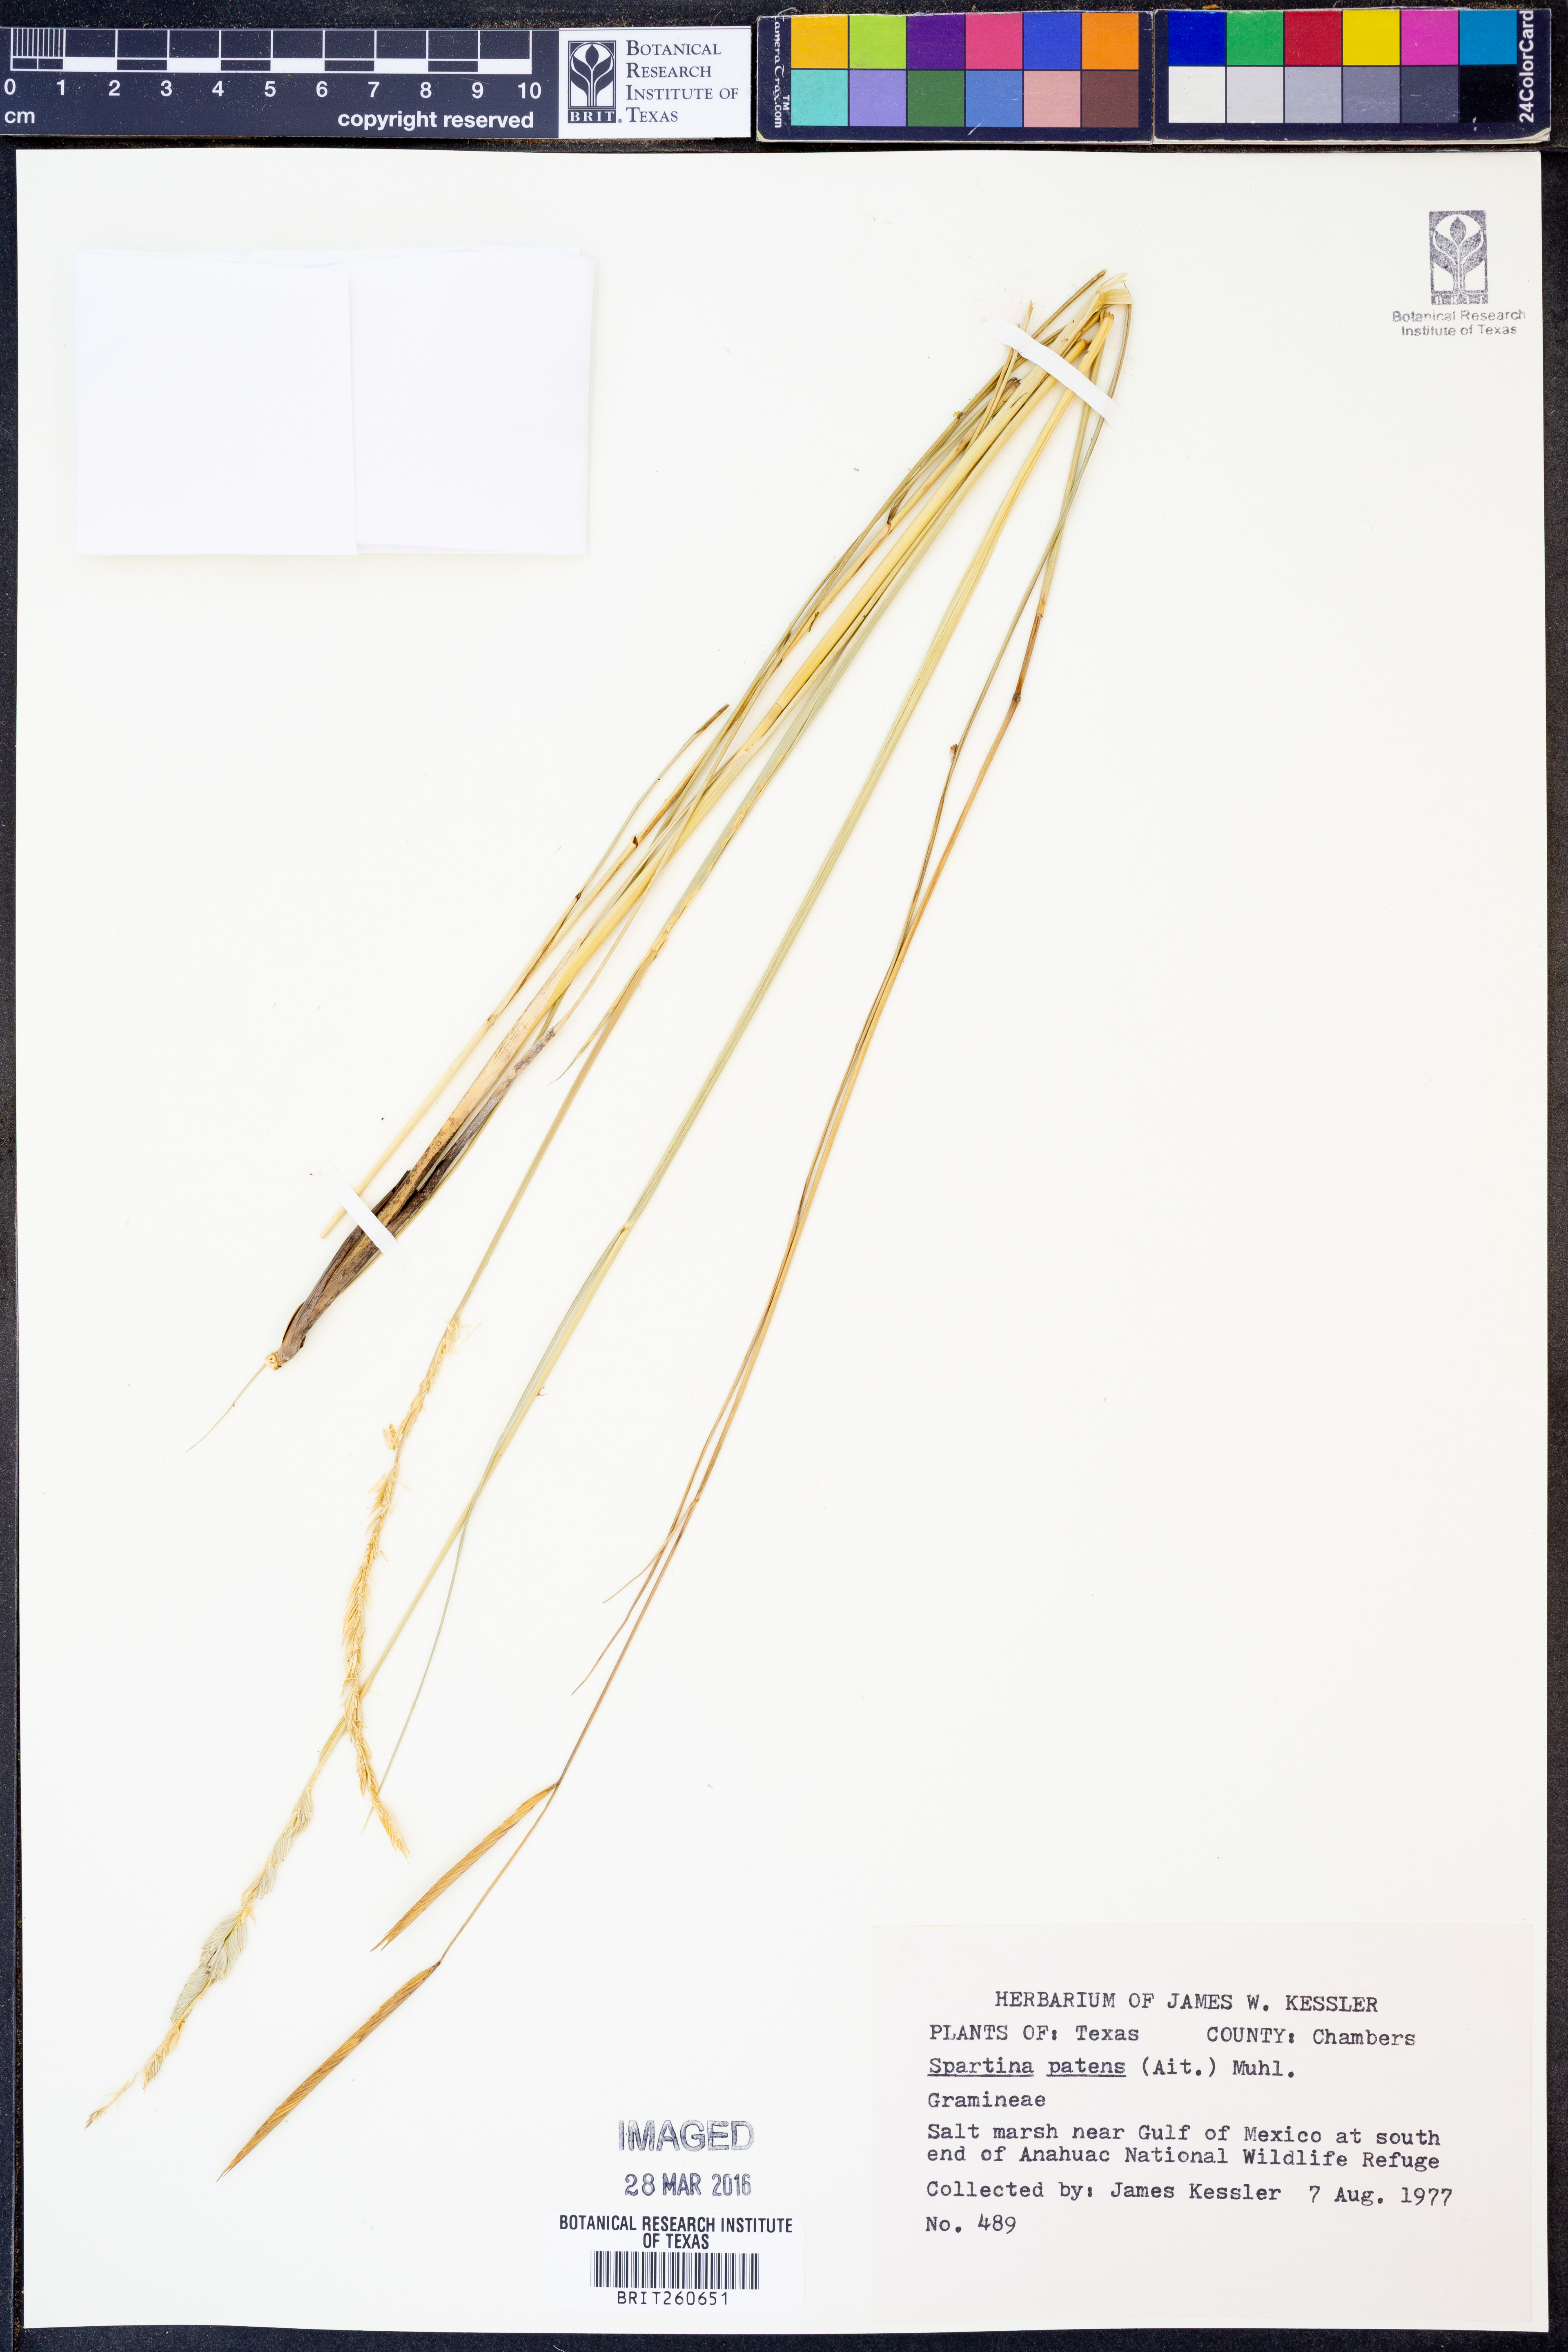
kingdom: Plantae
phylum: Tracheophyta
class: Liliopsida
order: Poales
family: Poaceae
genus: Sporobolus
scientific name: Sporobolus pumilus
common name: Highwater grass
